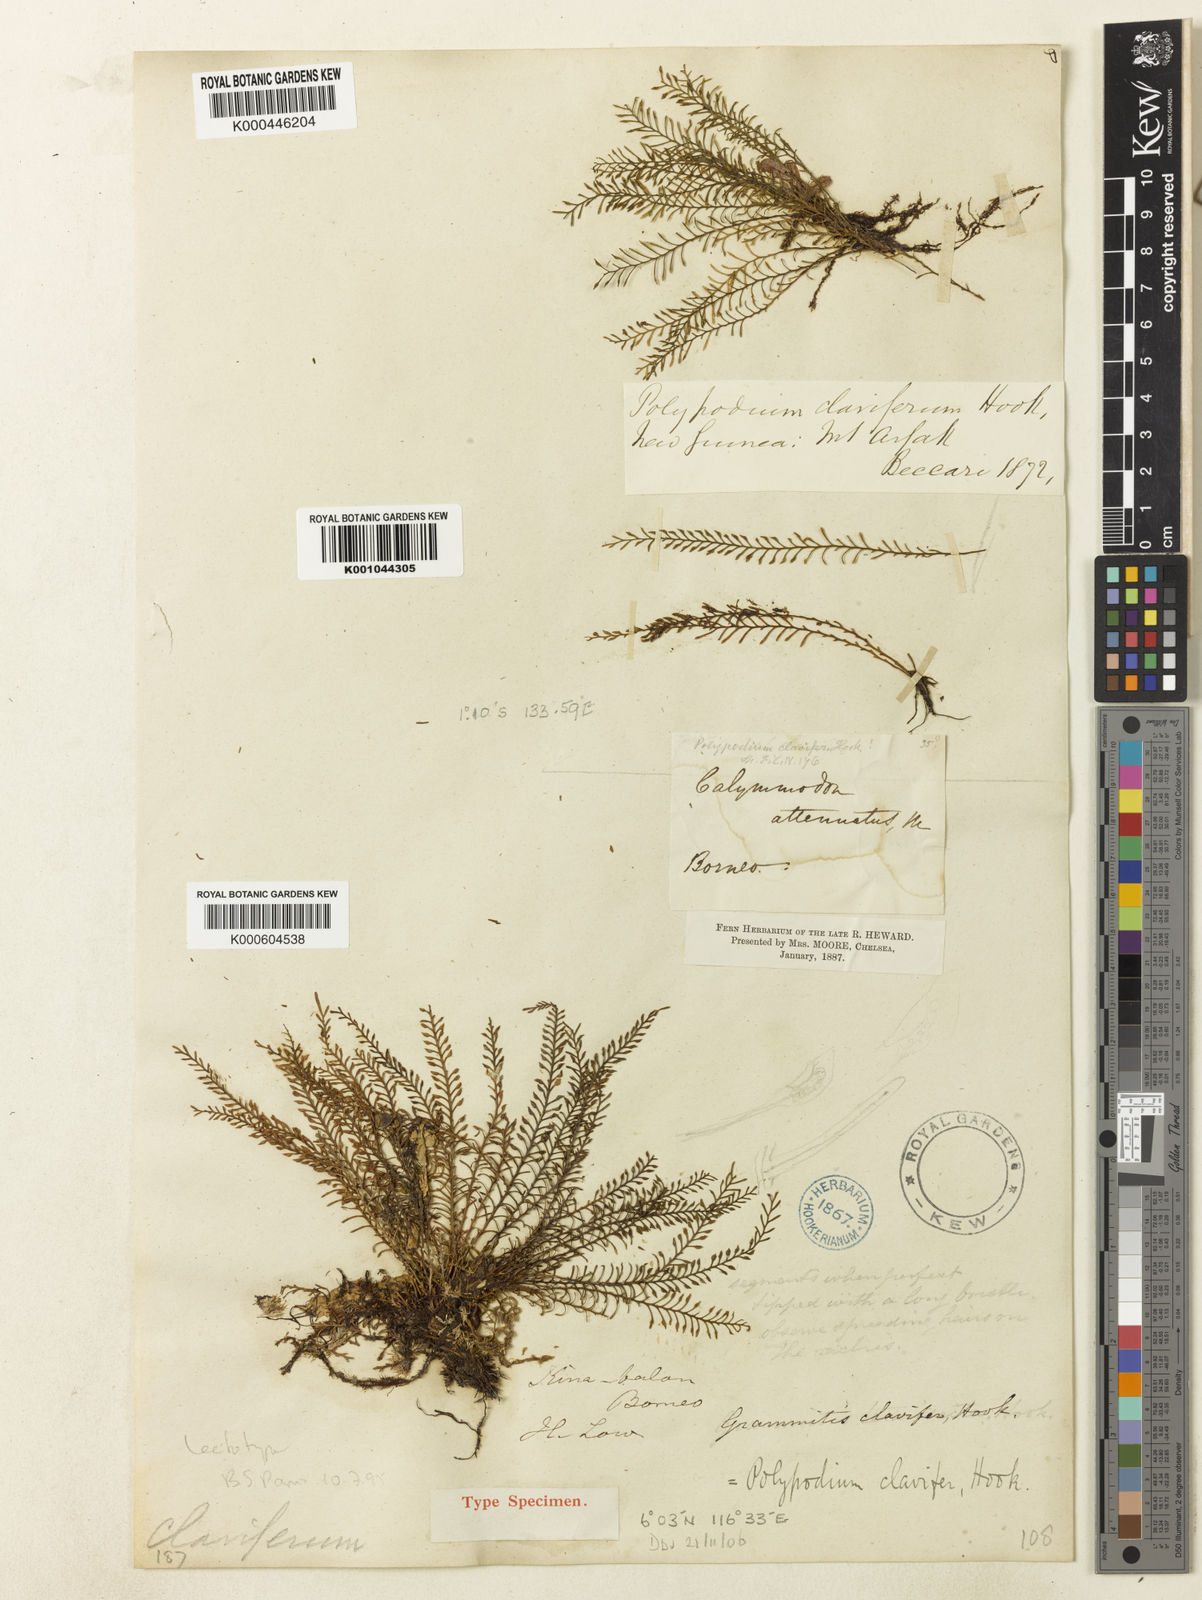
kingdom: Plantae
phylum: Tracheophyta
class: Polypodiopsida
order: Polypodiales
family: Polypodiaceae
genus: Calymmodon
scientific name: Calymmodon clavifer
